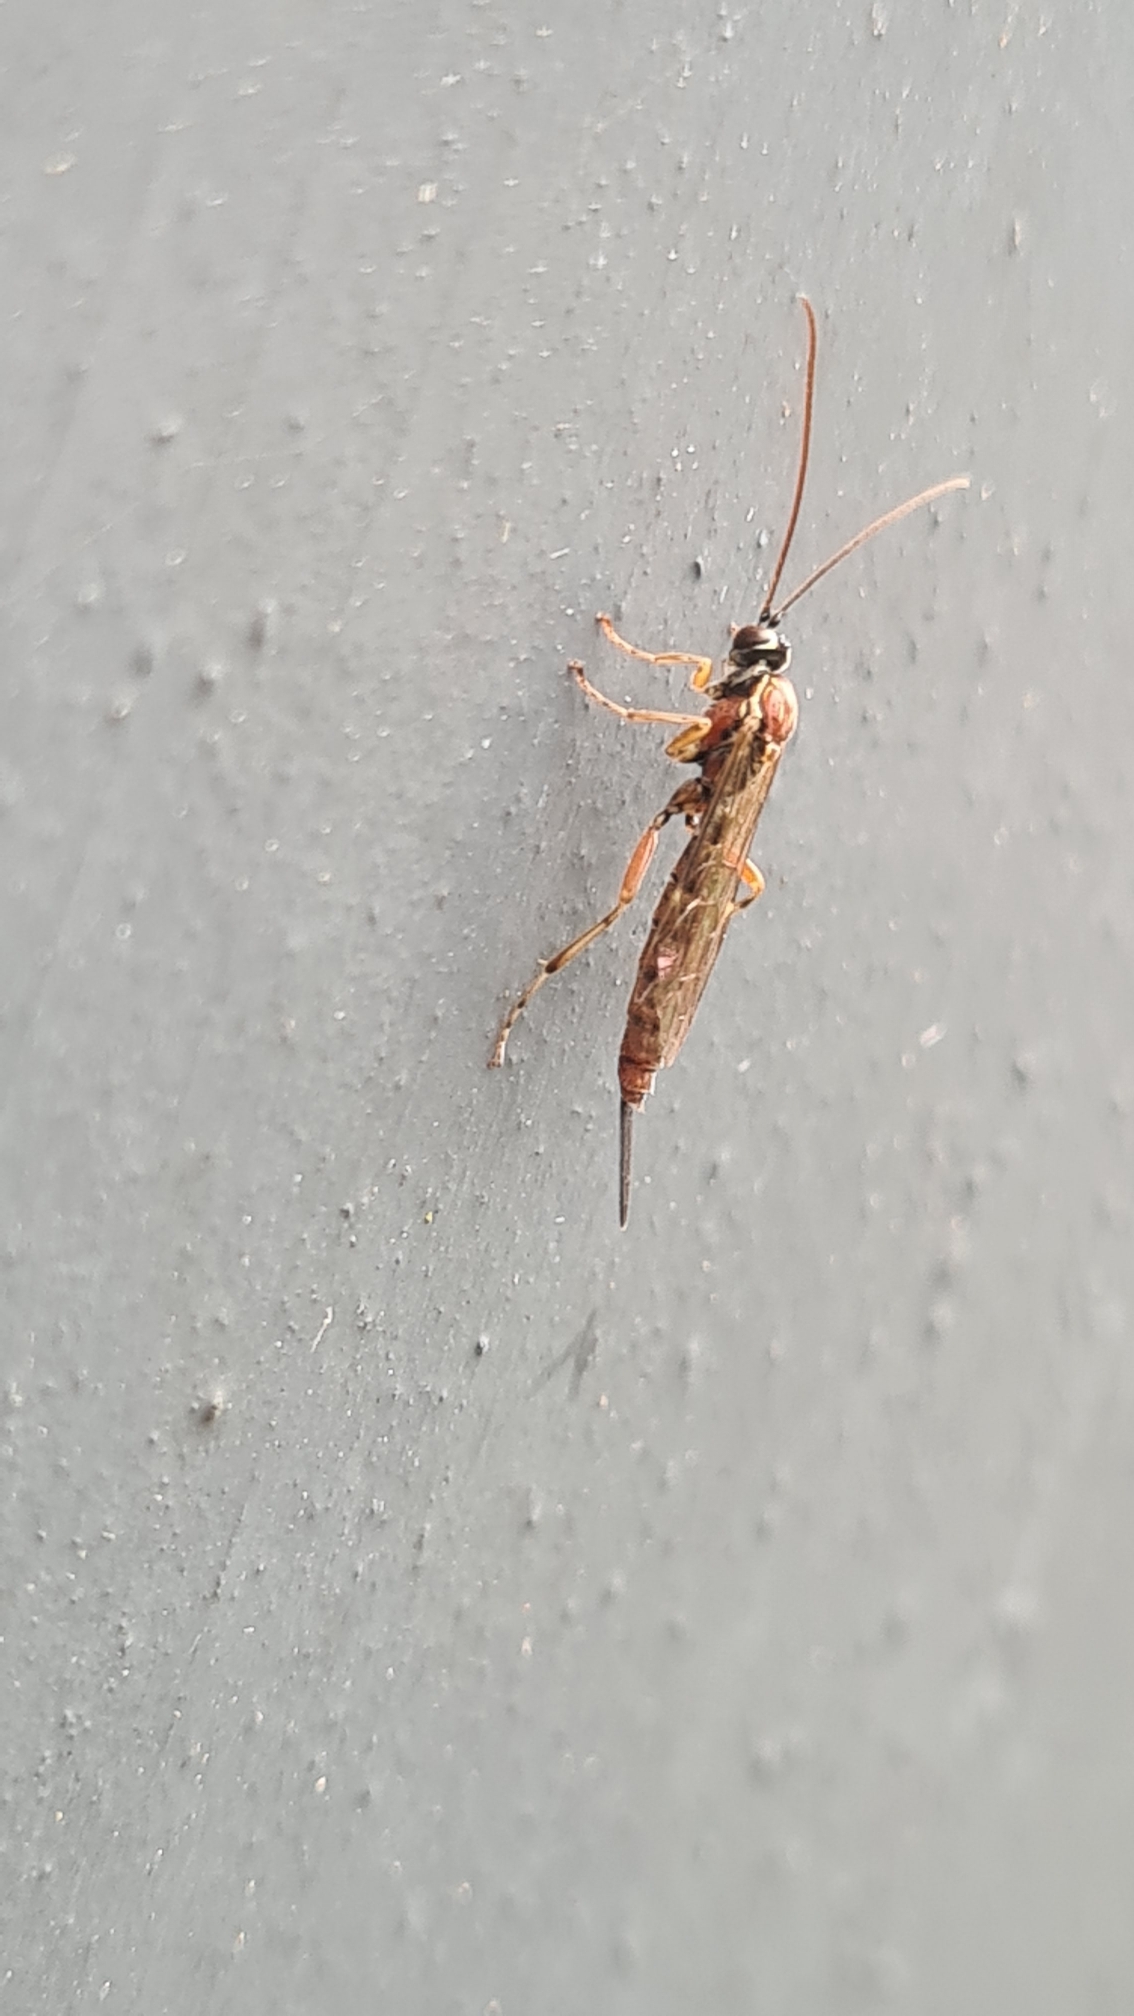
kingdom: Animalia
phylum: Arthropoda
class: Insecta
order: Hymenoptera
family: Ichneumonidae
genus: Tromatobia
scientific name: Tromatobia lineatoria
